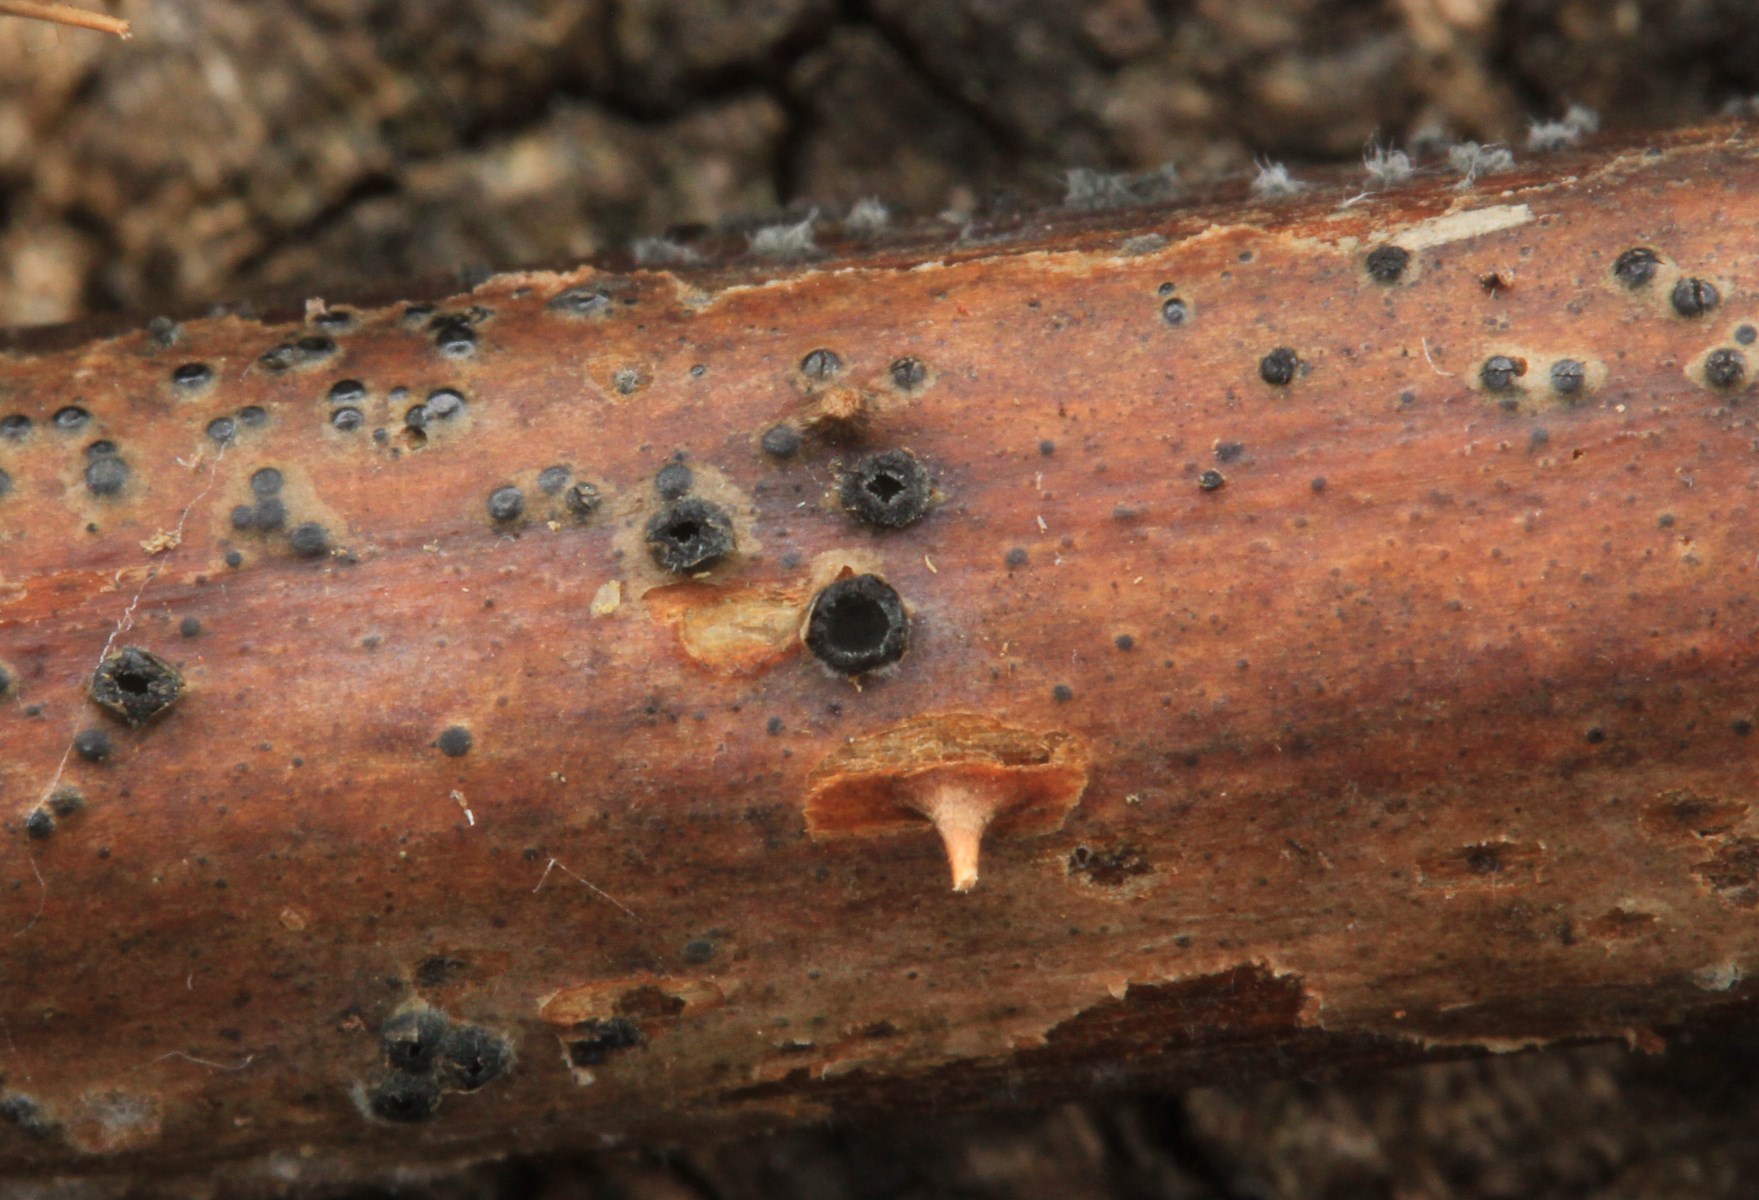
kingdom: Fungi
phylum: Ascomycota
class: Leotiomycetes
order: Helotiales
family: Ploettnerulaceae
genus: Pyrenopeziza
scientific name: Pyrenopeziza rubi
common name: hindbær-kerneskive
